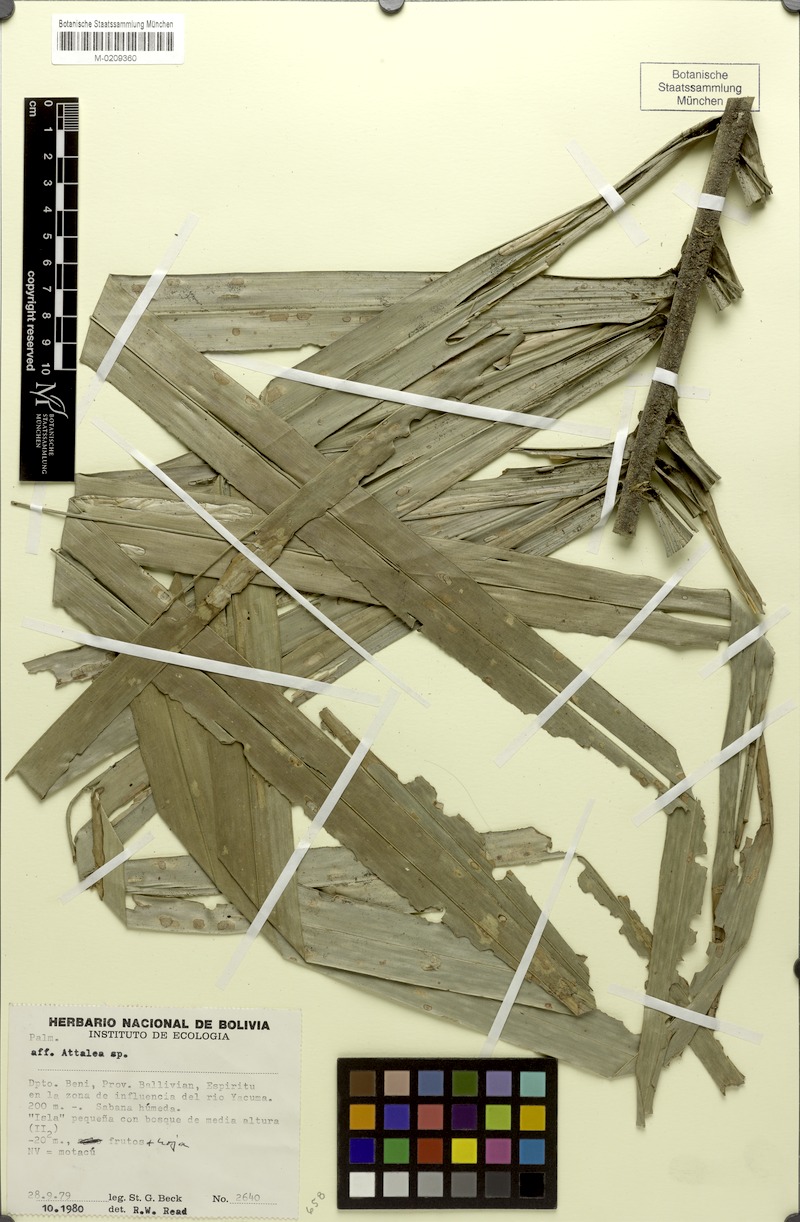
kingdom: Plantae
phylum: Tracheophyta
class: Liliopsida
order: Arecales
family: Arecaceae
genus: Attalea
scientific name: Attalea funifera
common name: Piassava palm
